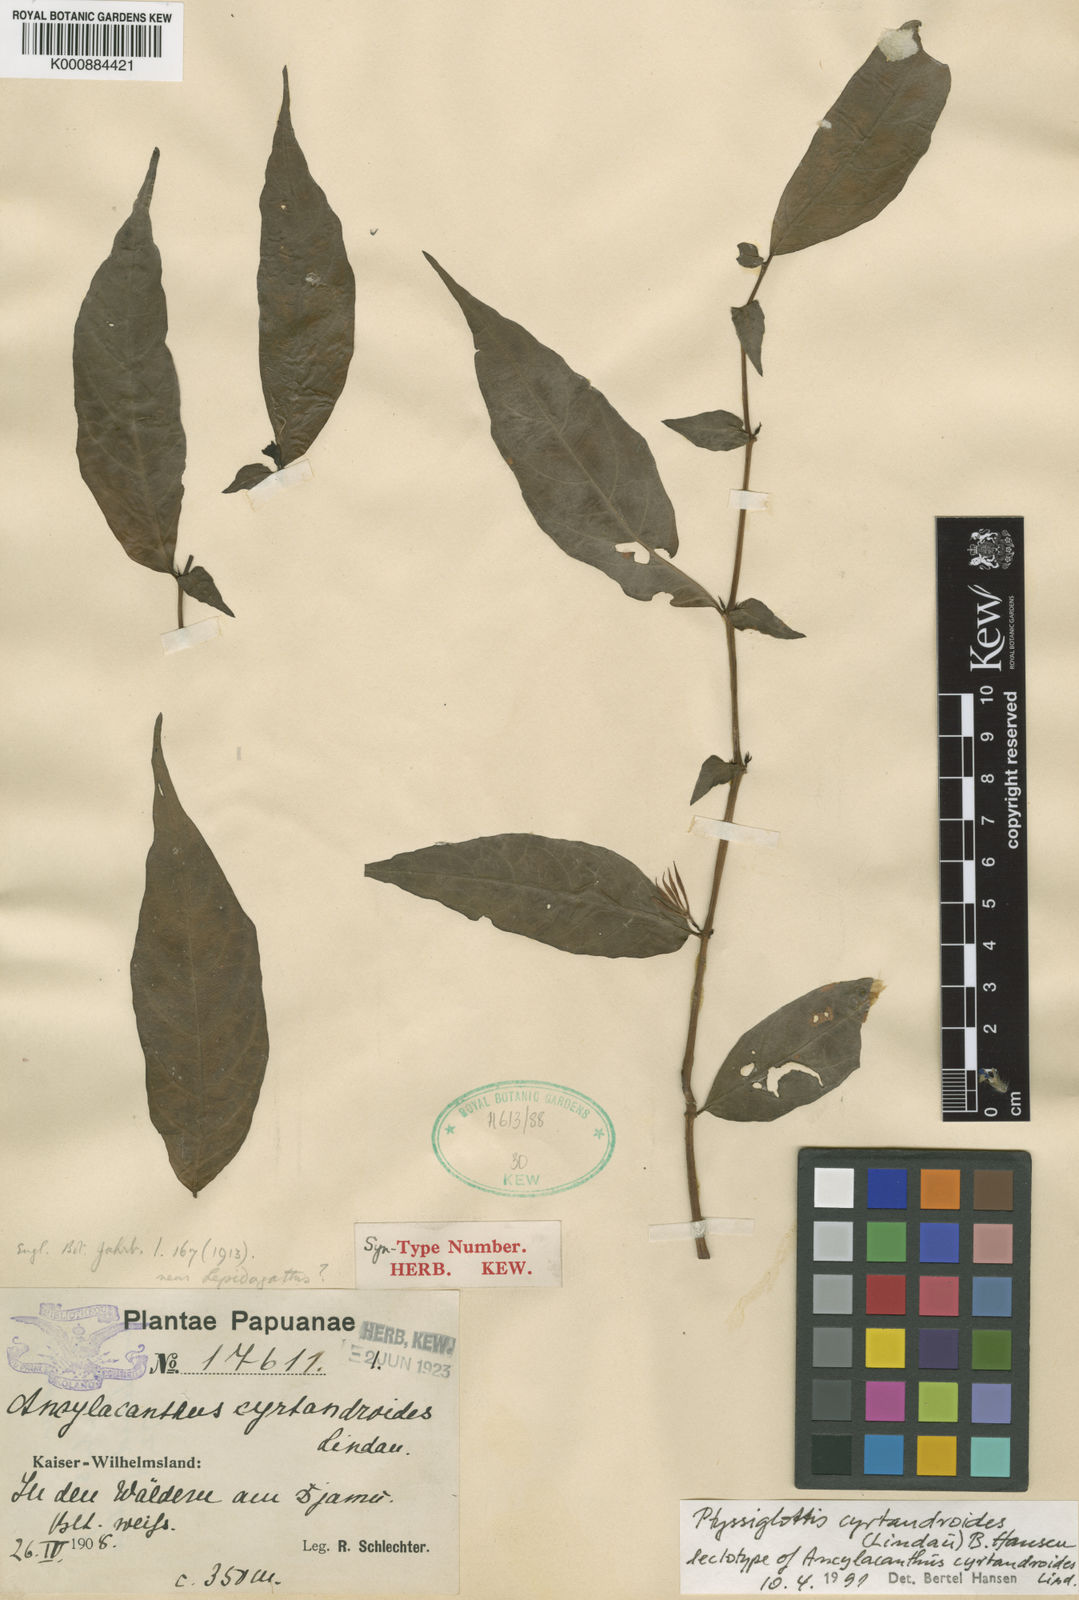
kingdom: Plantae
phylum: Tracheophyta
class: Magnoliopsida
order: Lamiales
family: Acanthaceae
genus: Ptyssiglottis
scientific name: Ptyssiglottis cyrtandroides
